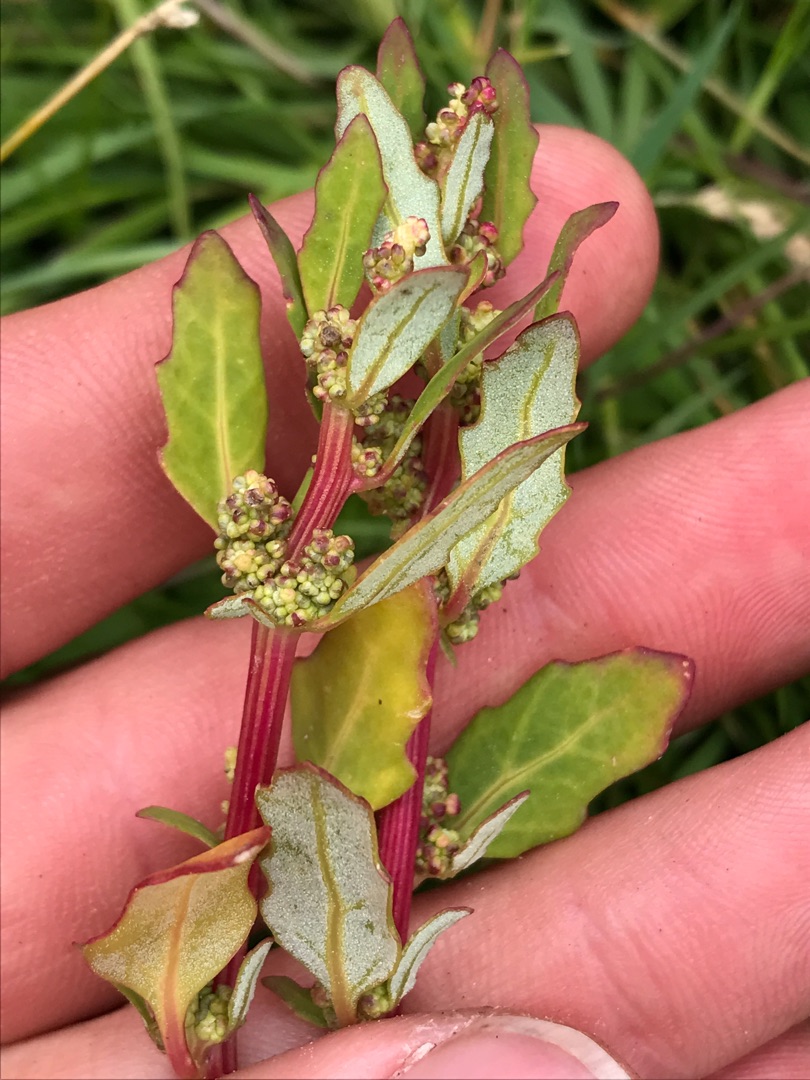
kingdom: Plantae
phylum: Tracheophyta
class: Magnoliopsida
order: Caryophyllales
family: Amaranthaceae
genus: Oxybasis
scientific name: Oxybasis glauca
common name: Blågrøn gåsefod
